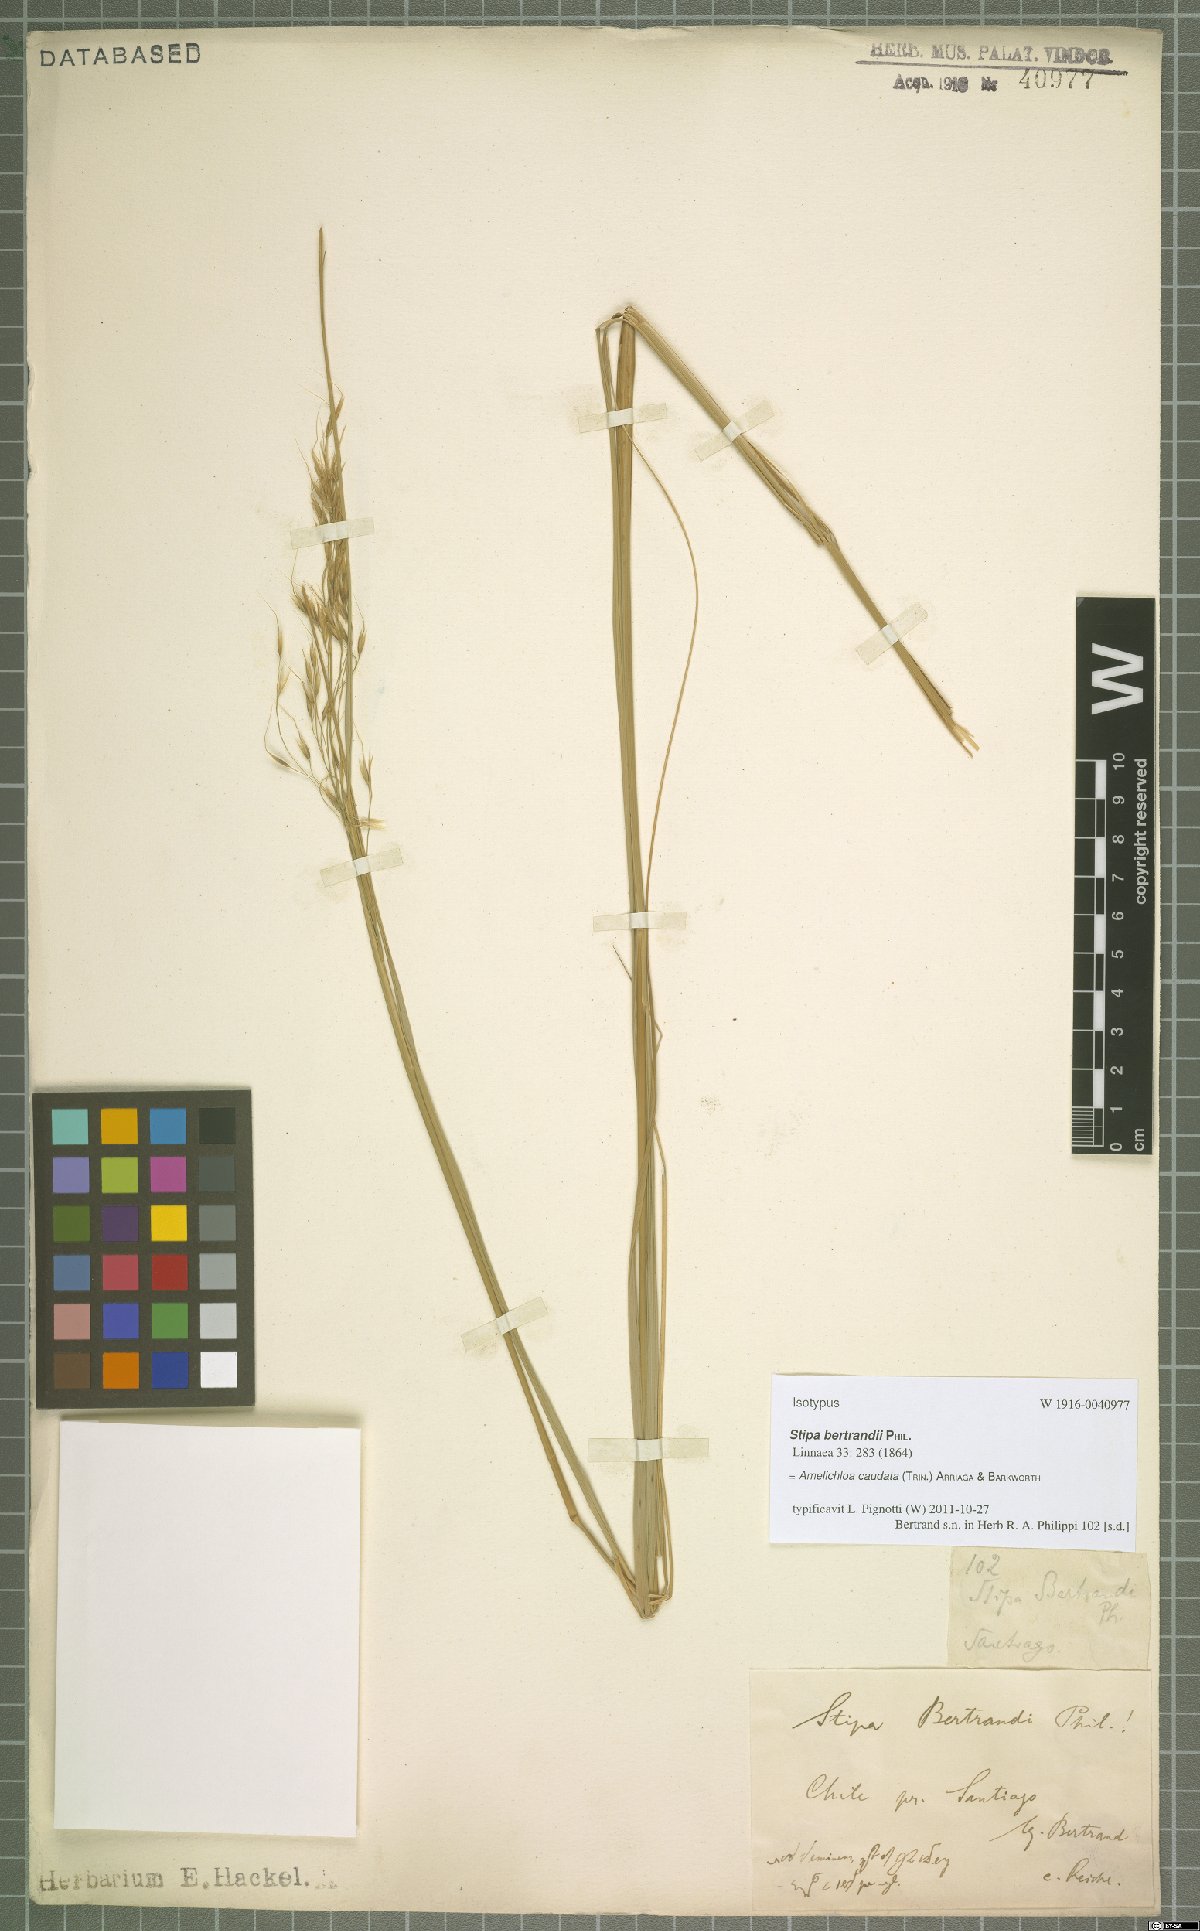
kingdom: Plantae
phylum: Tracheophyta
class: Liliopsida
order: Poales
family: Poaceae
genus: Amelichloa
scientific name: Amelichloa caudata
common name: Chilean ricegrass
